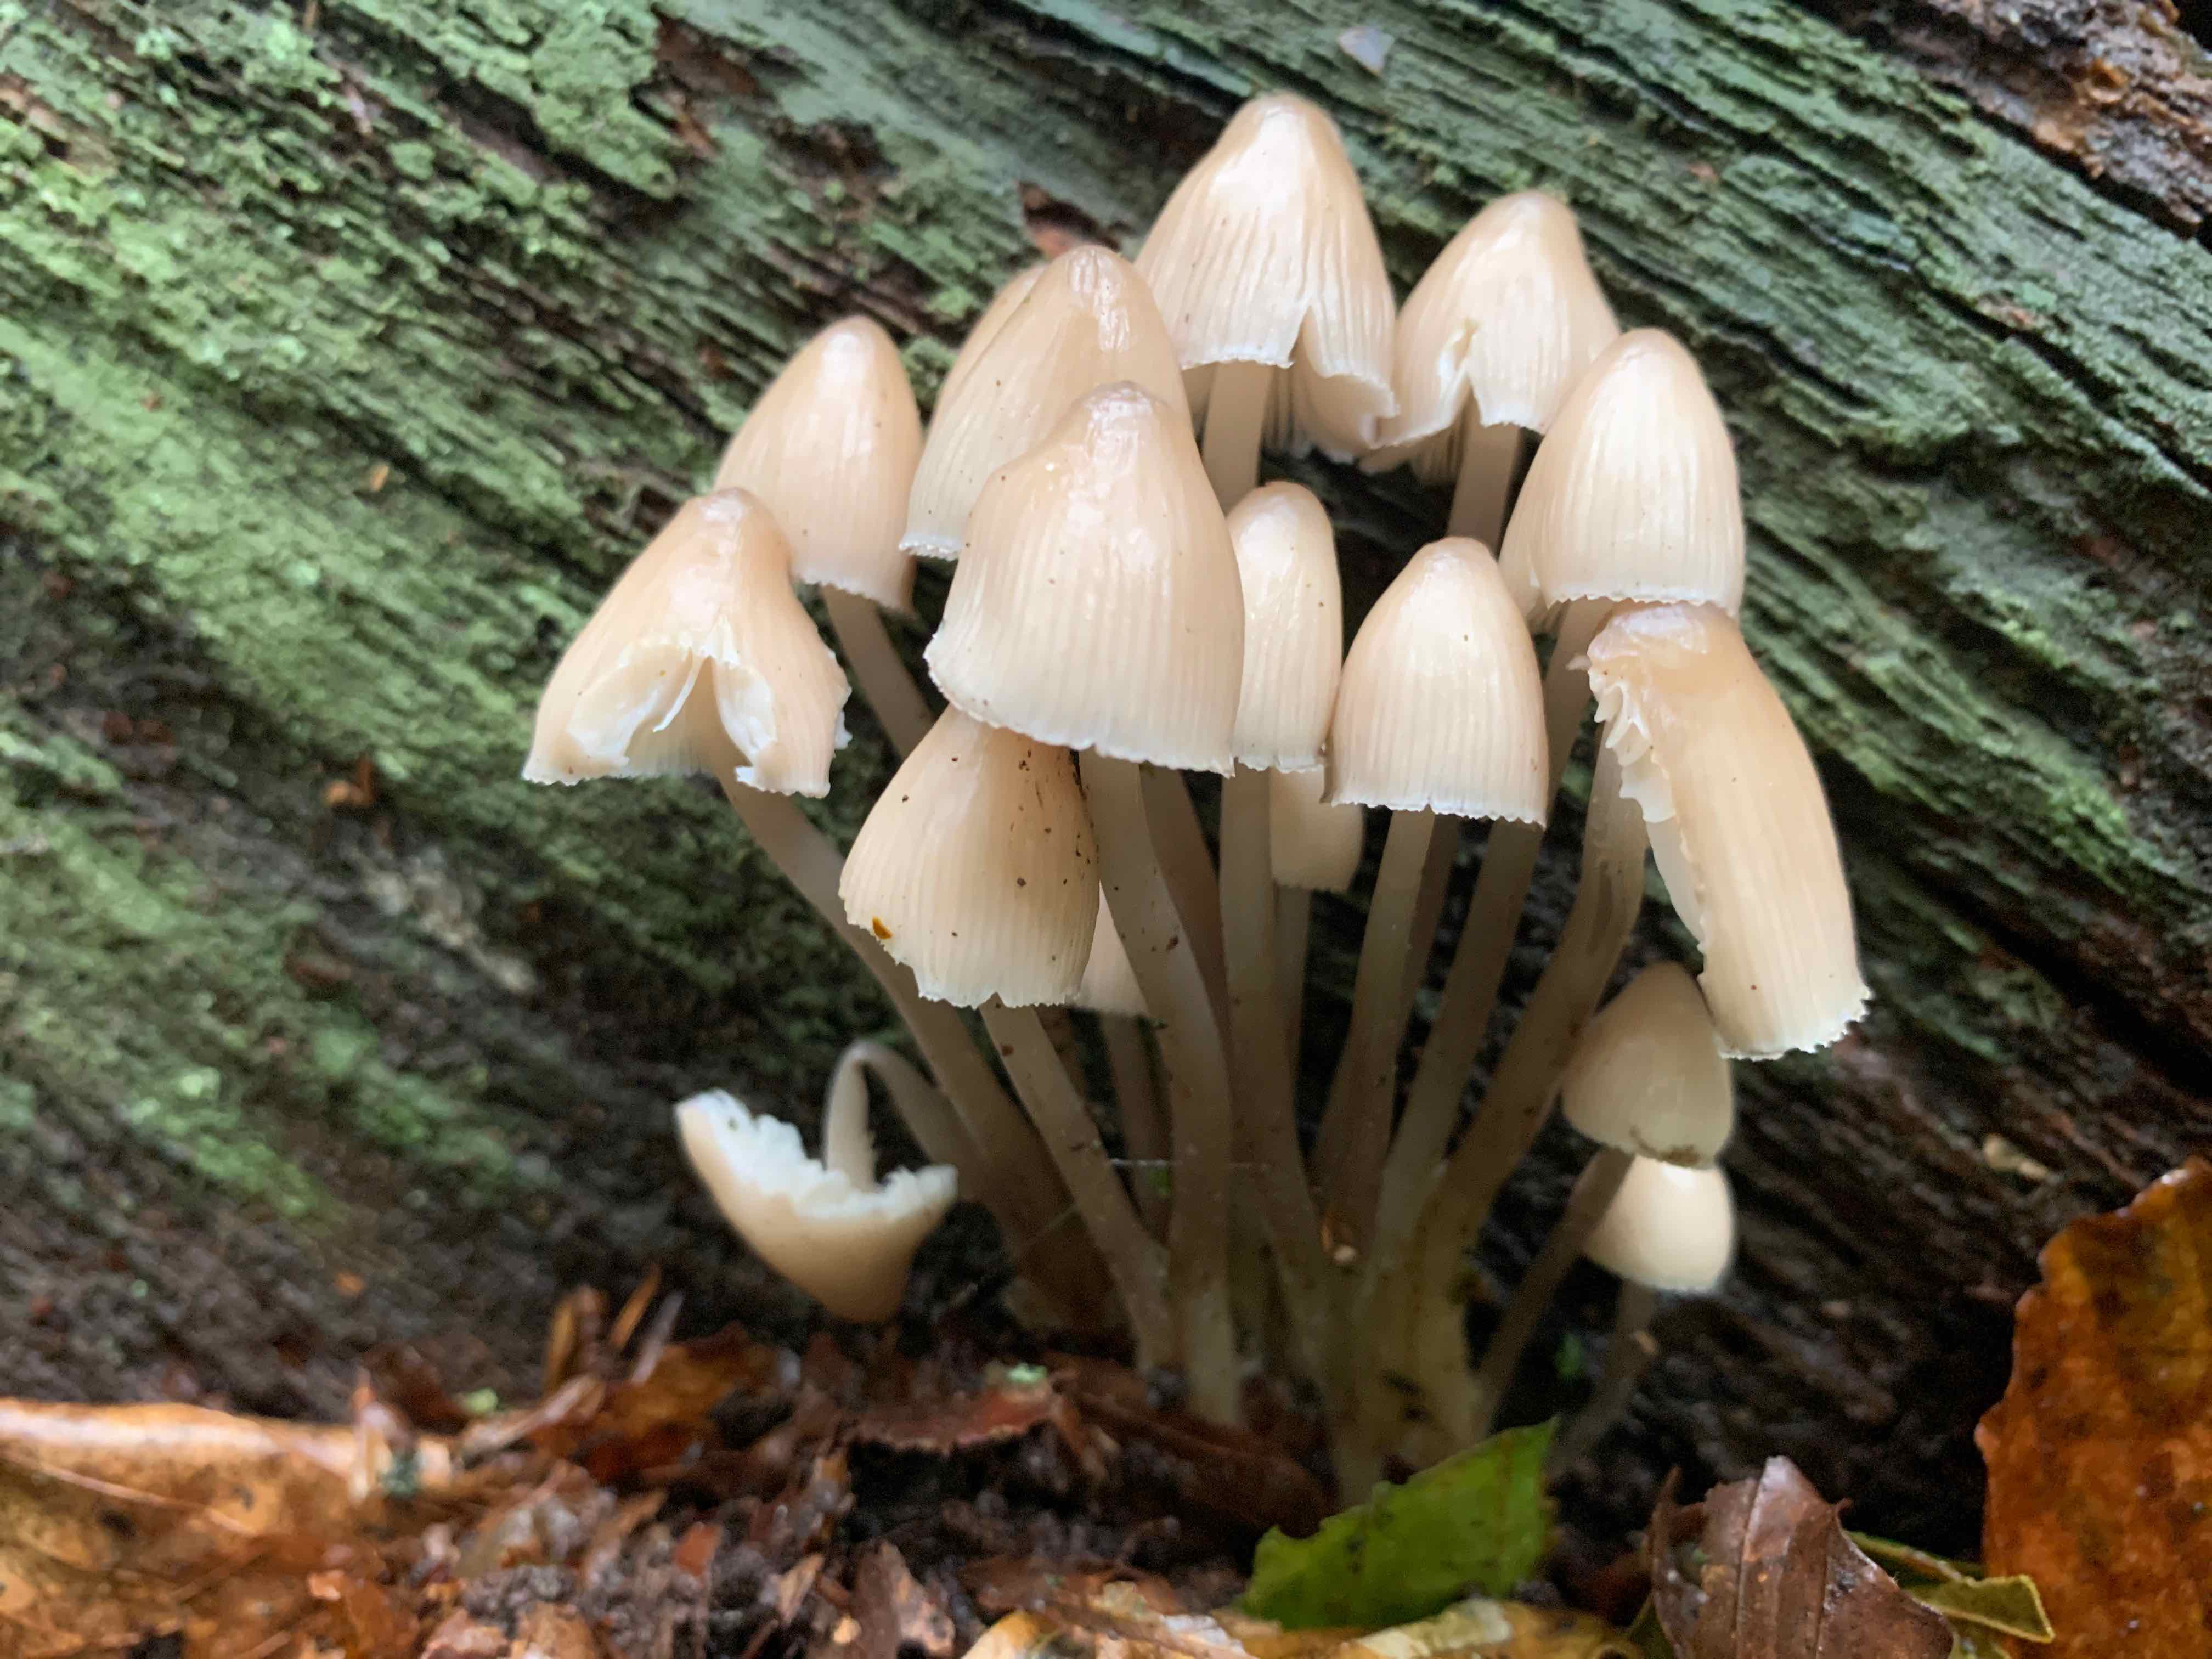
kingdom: Fungi
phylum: Basidiomycota
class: Agaricomycetes
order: Agaricales
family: Mycenaceae
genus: Mycena
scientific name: Mycena galericulata
